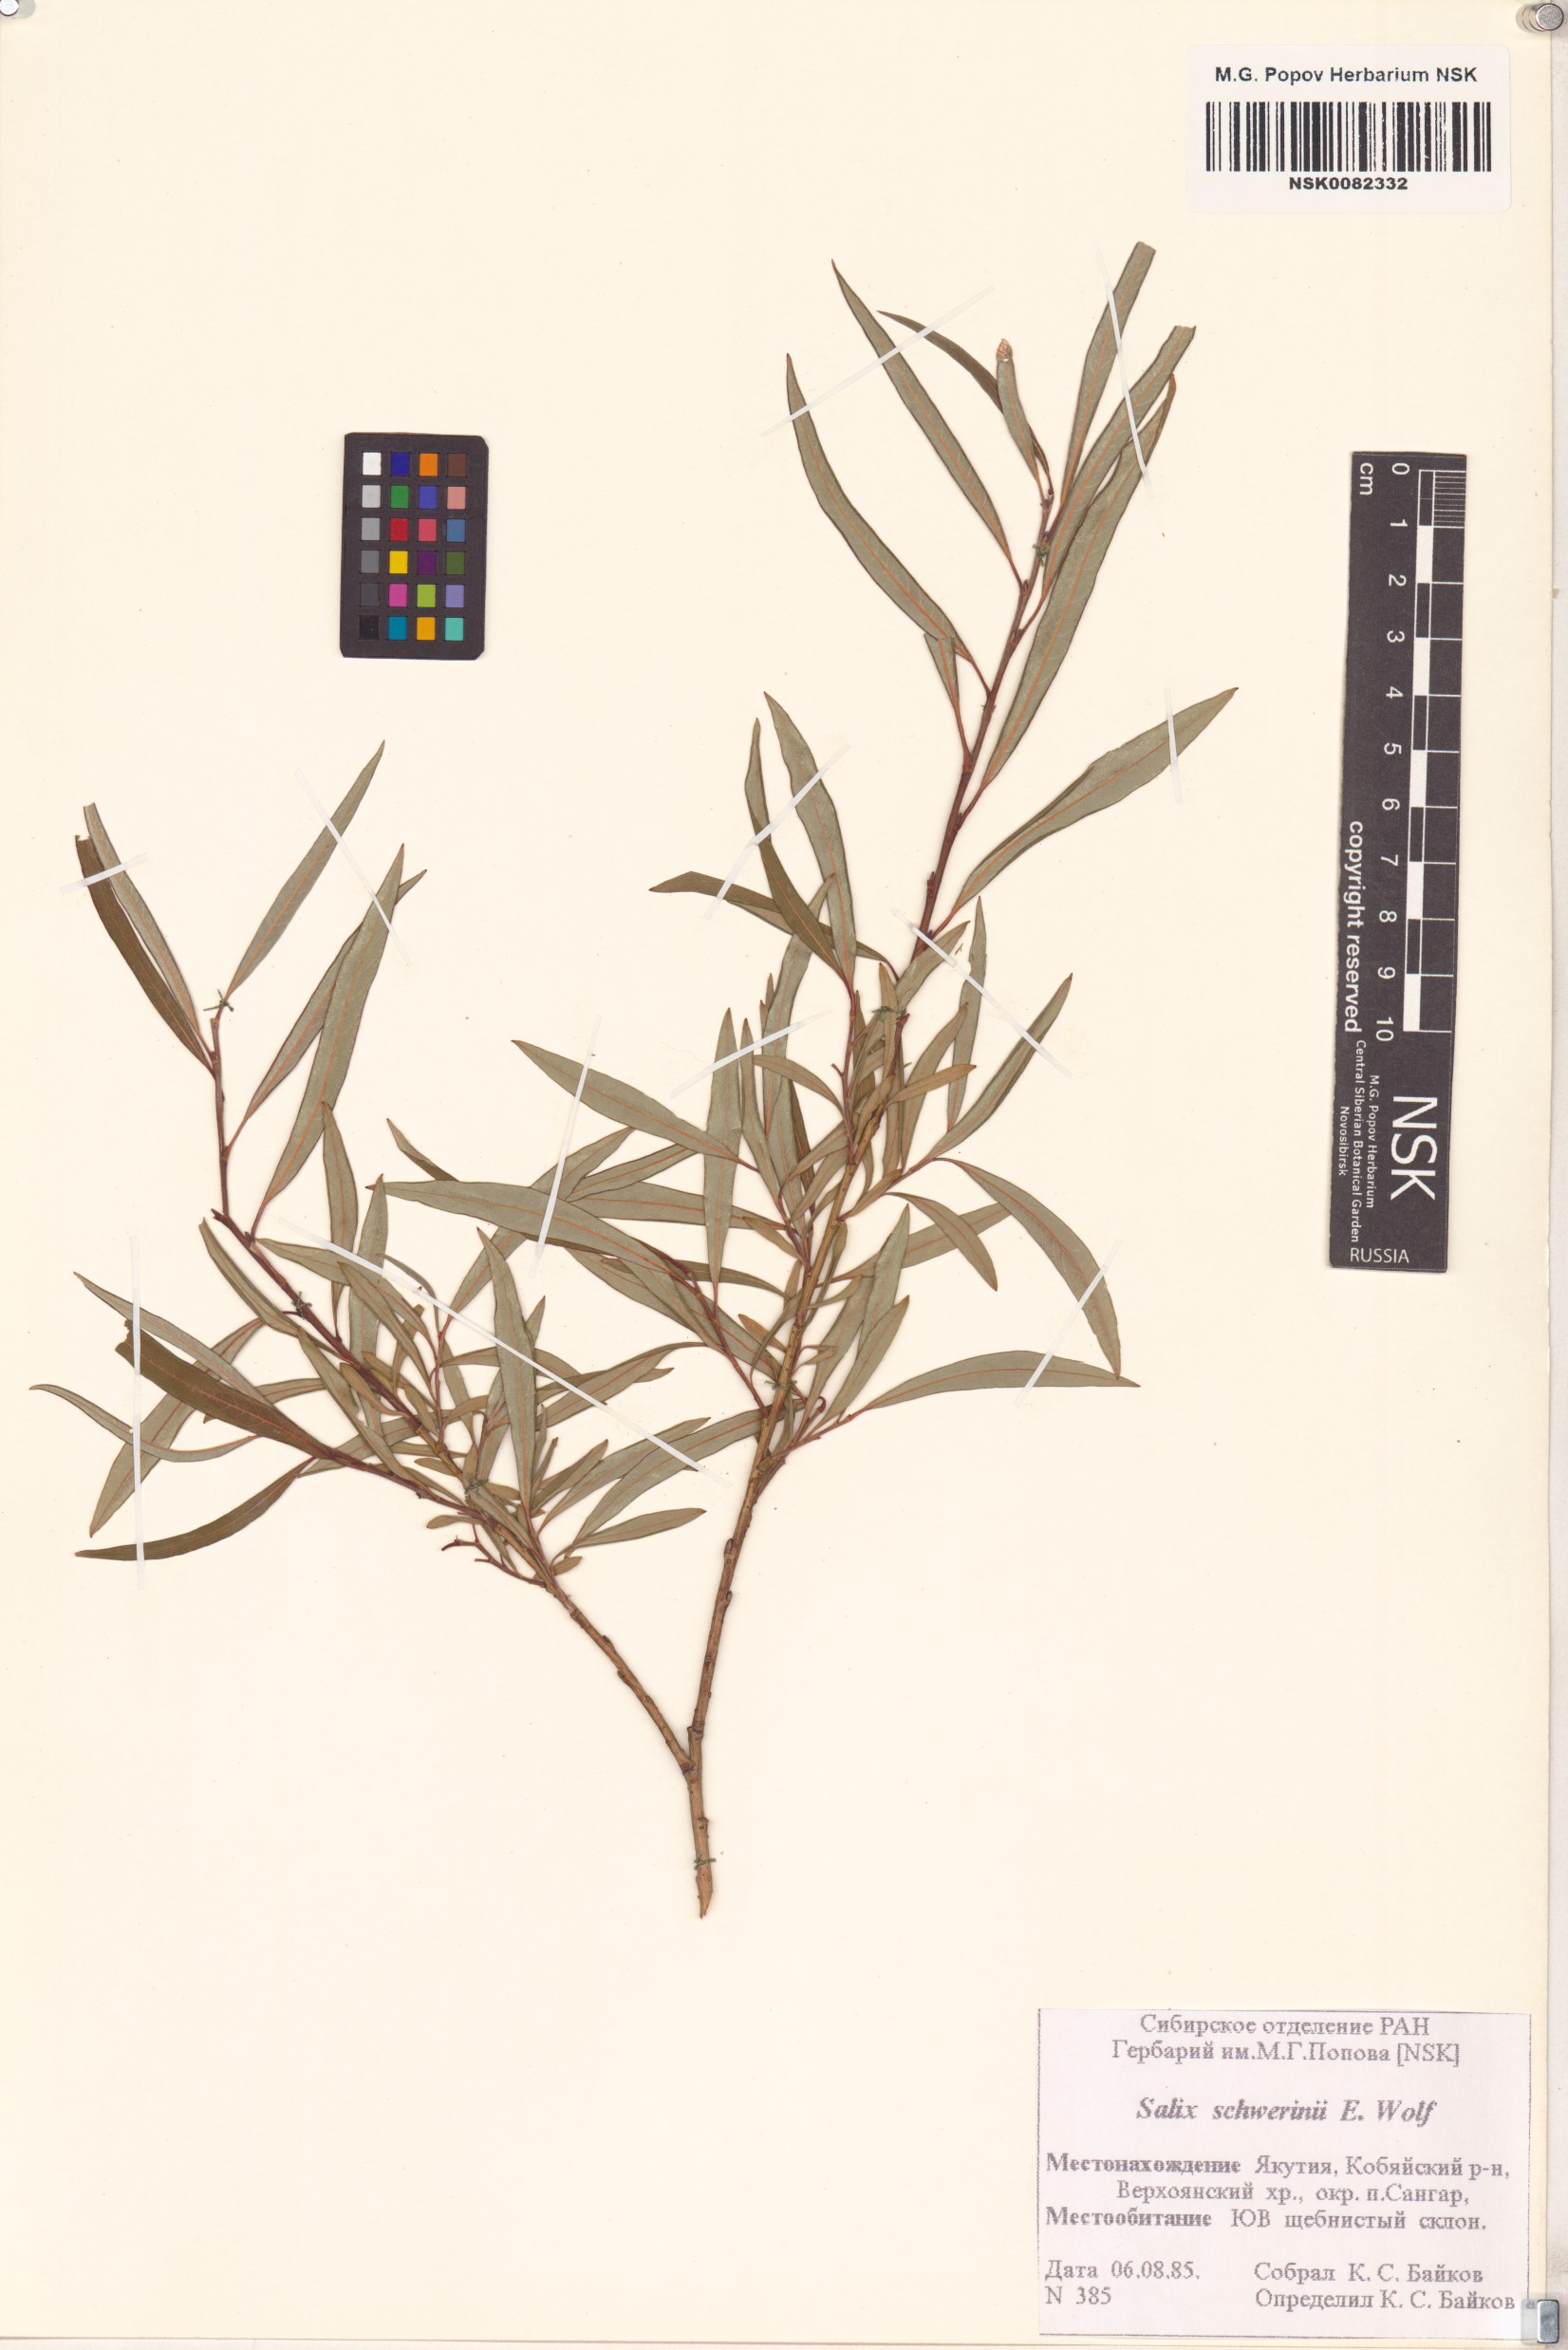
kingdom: Plantae
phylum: Tracheophyta
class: Magnoliopsida
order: Malpighiales
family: Salicaceae
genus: Salix
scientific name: Salix schwerinii
